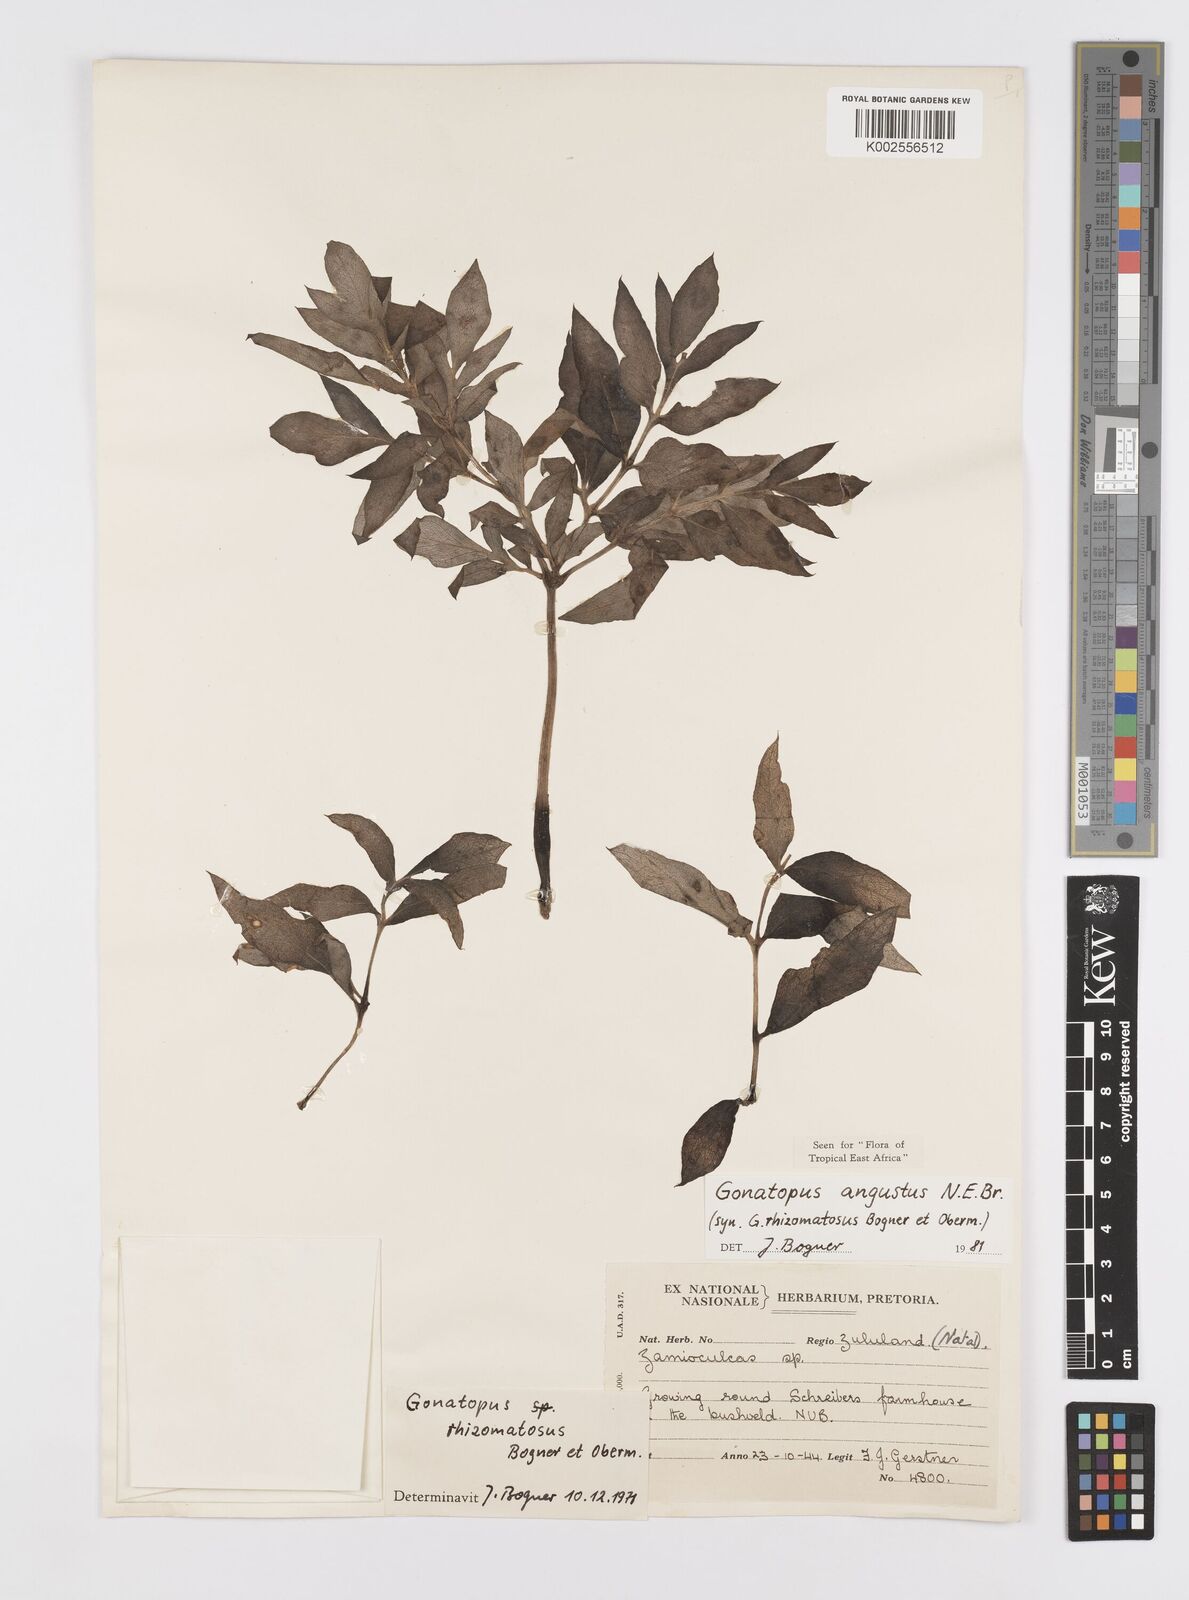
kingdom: Plantae
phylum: Tracheophyta
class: Liliopsida
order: Alismatales
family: Araceae
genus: Gonatopus
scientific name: Gonatopus angustus
